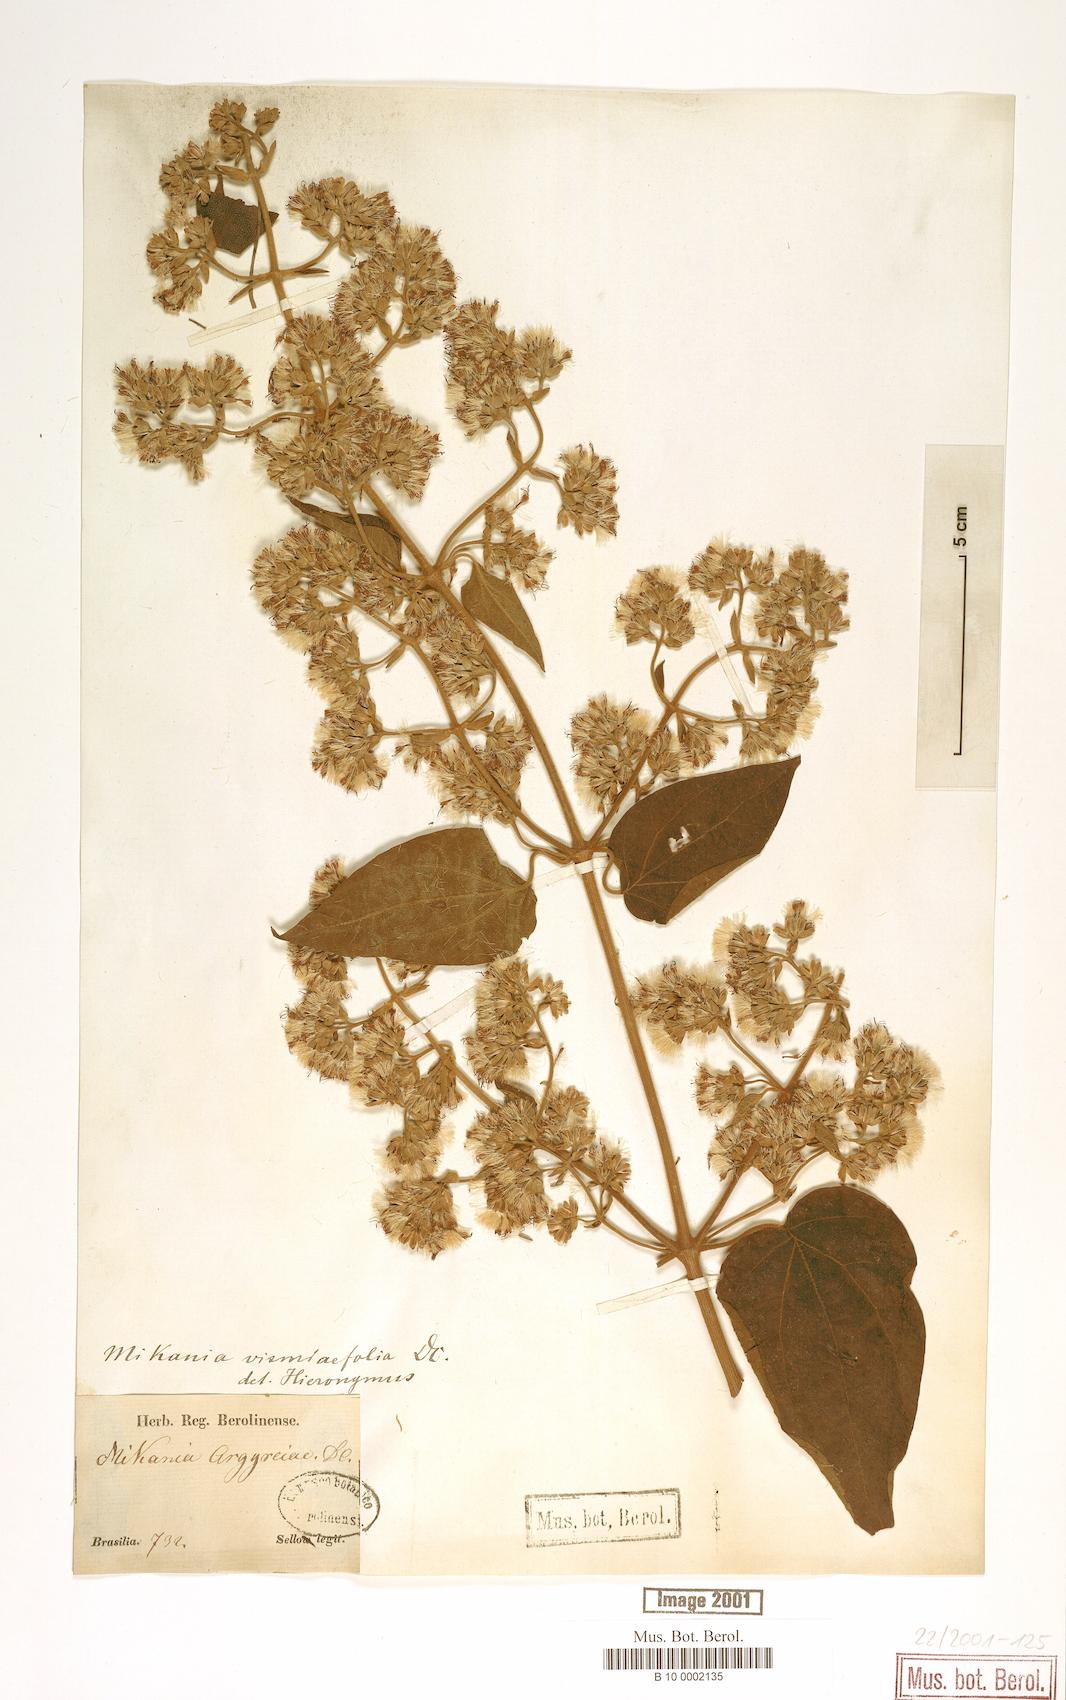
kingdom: Plantae
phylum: Tracheophyta
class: Magnoliopsida
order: Asterales
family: Asteraceae
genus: Mikania
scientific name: Mikania vismiifolia
